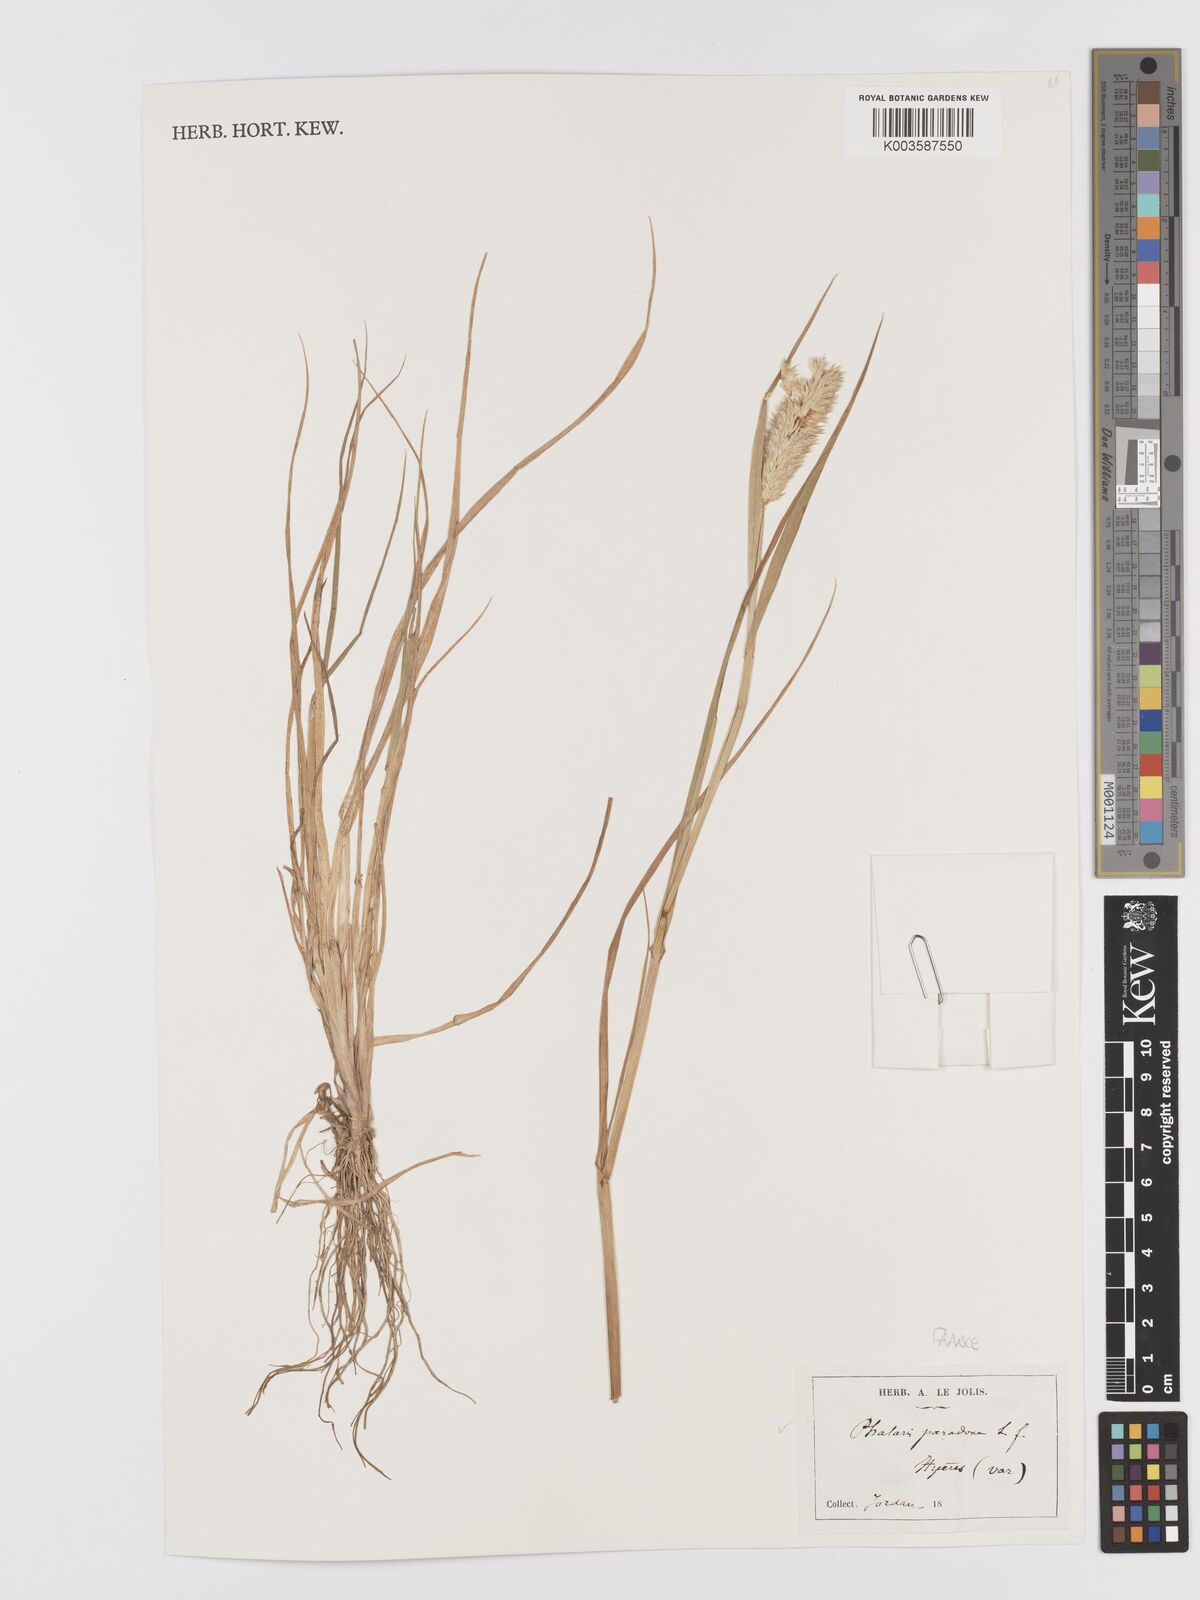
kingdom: Plantae
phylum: Tracheophyta
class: Liliopsida
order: Poales
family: Poaceae
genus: Phalaris
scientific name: Phalaris paradoxa
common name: Awned canary-grass
